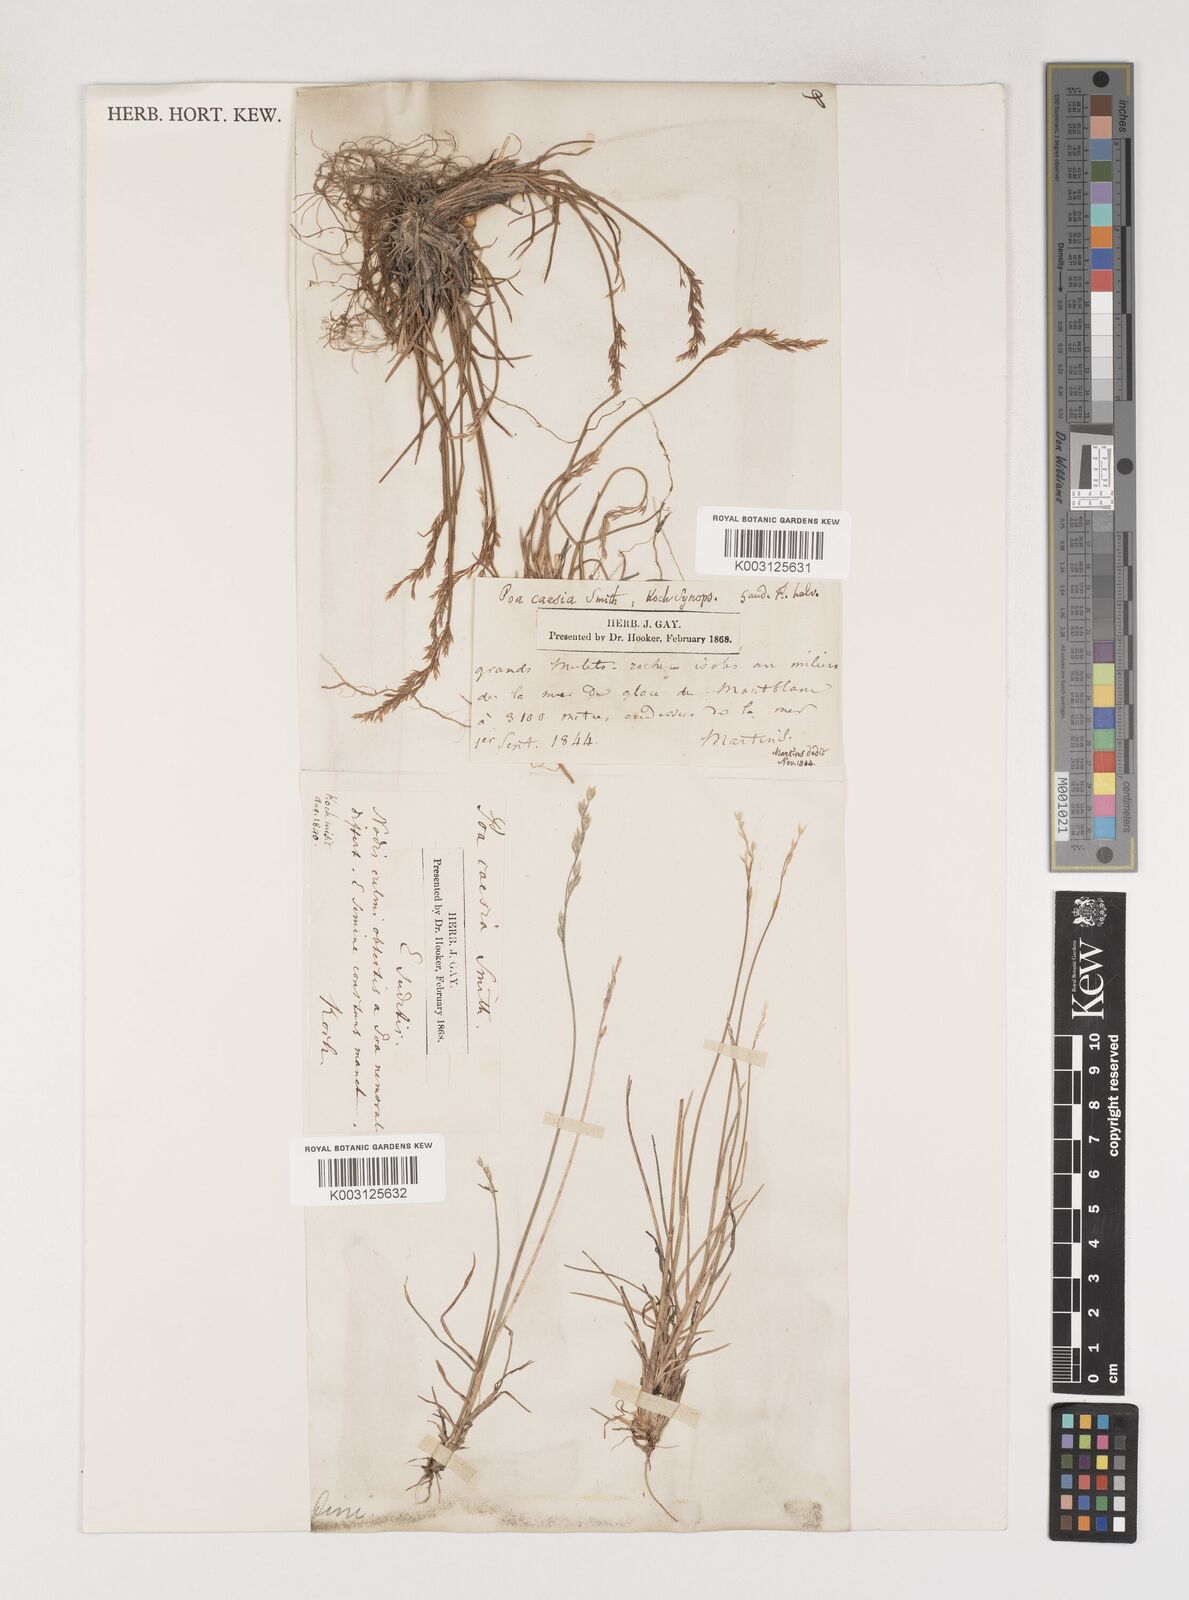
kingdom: Plantae
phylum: Tracheophyta
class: Liliopsida
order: Poales
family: Poaceae
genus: Poa
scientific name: Poa
